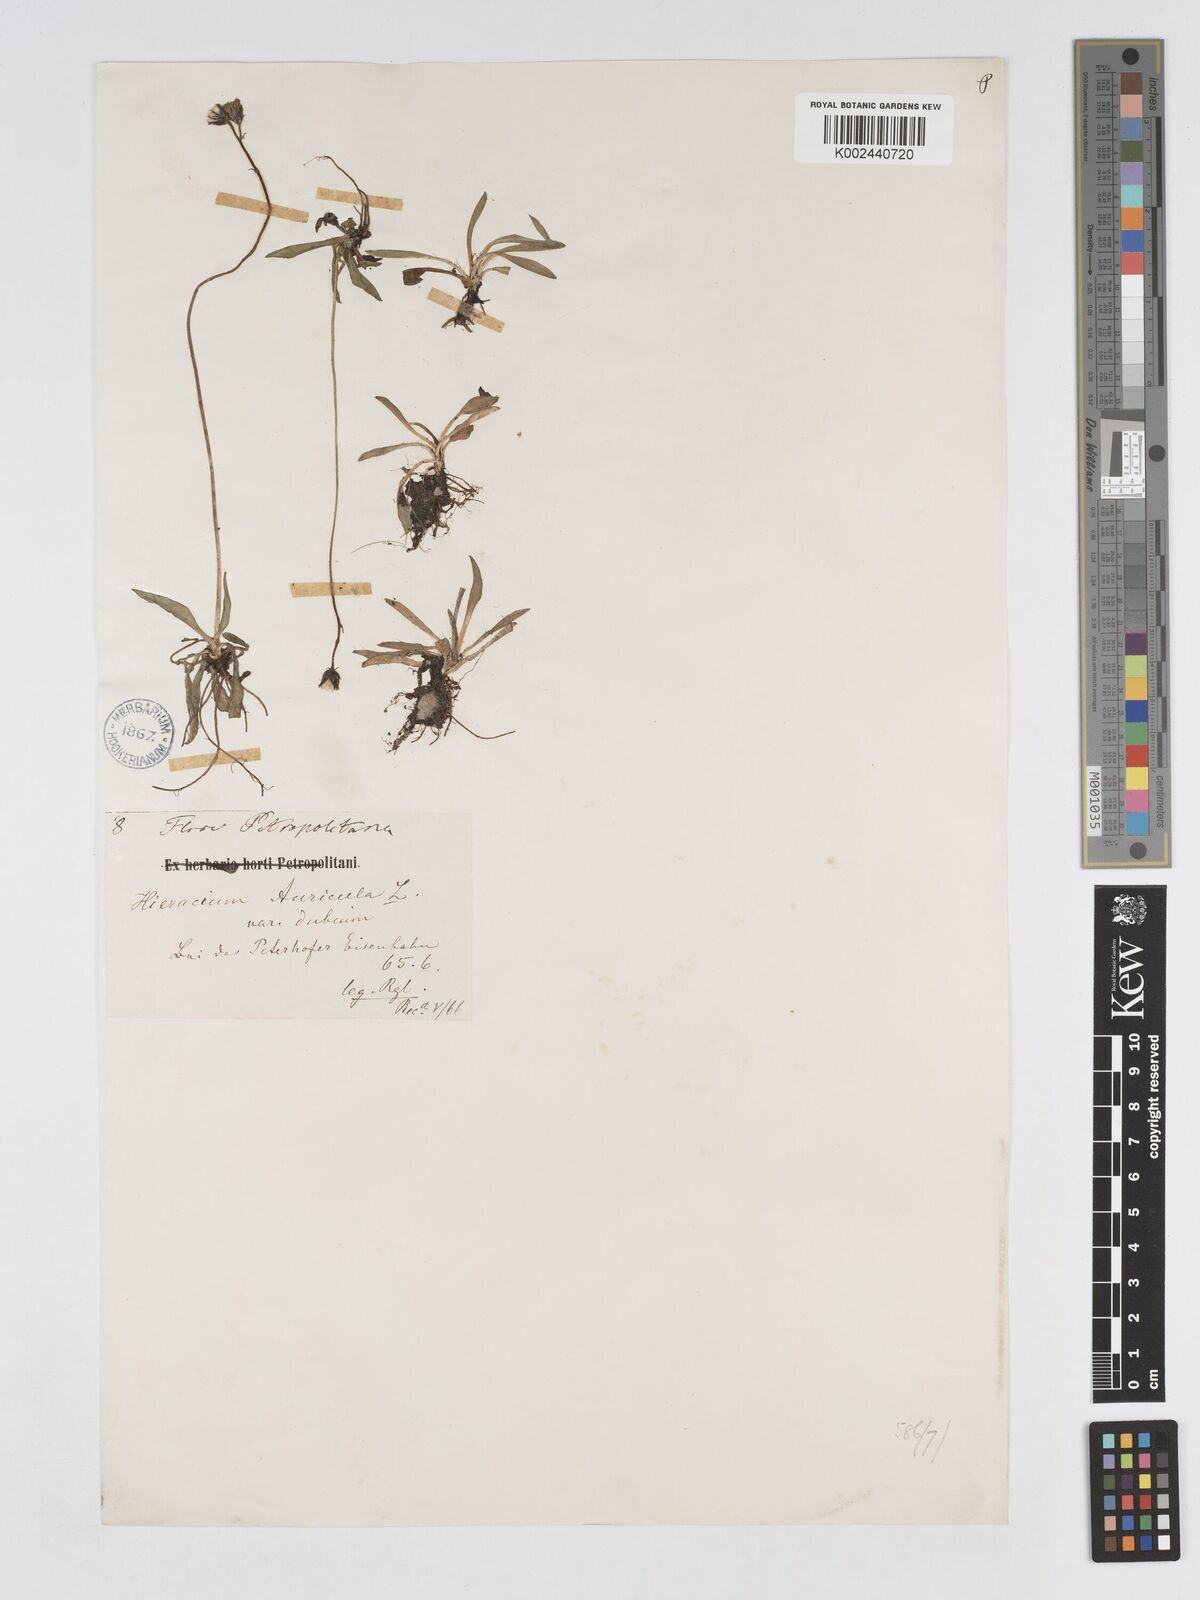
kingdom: Plantae
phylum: Tracheophyta
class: Magnoliopsida
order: Asterales
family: Asteraceae
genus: Pilosella
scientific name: Pilosella floribunda
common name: Glaucous hawkweed
